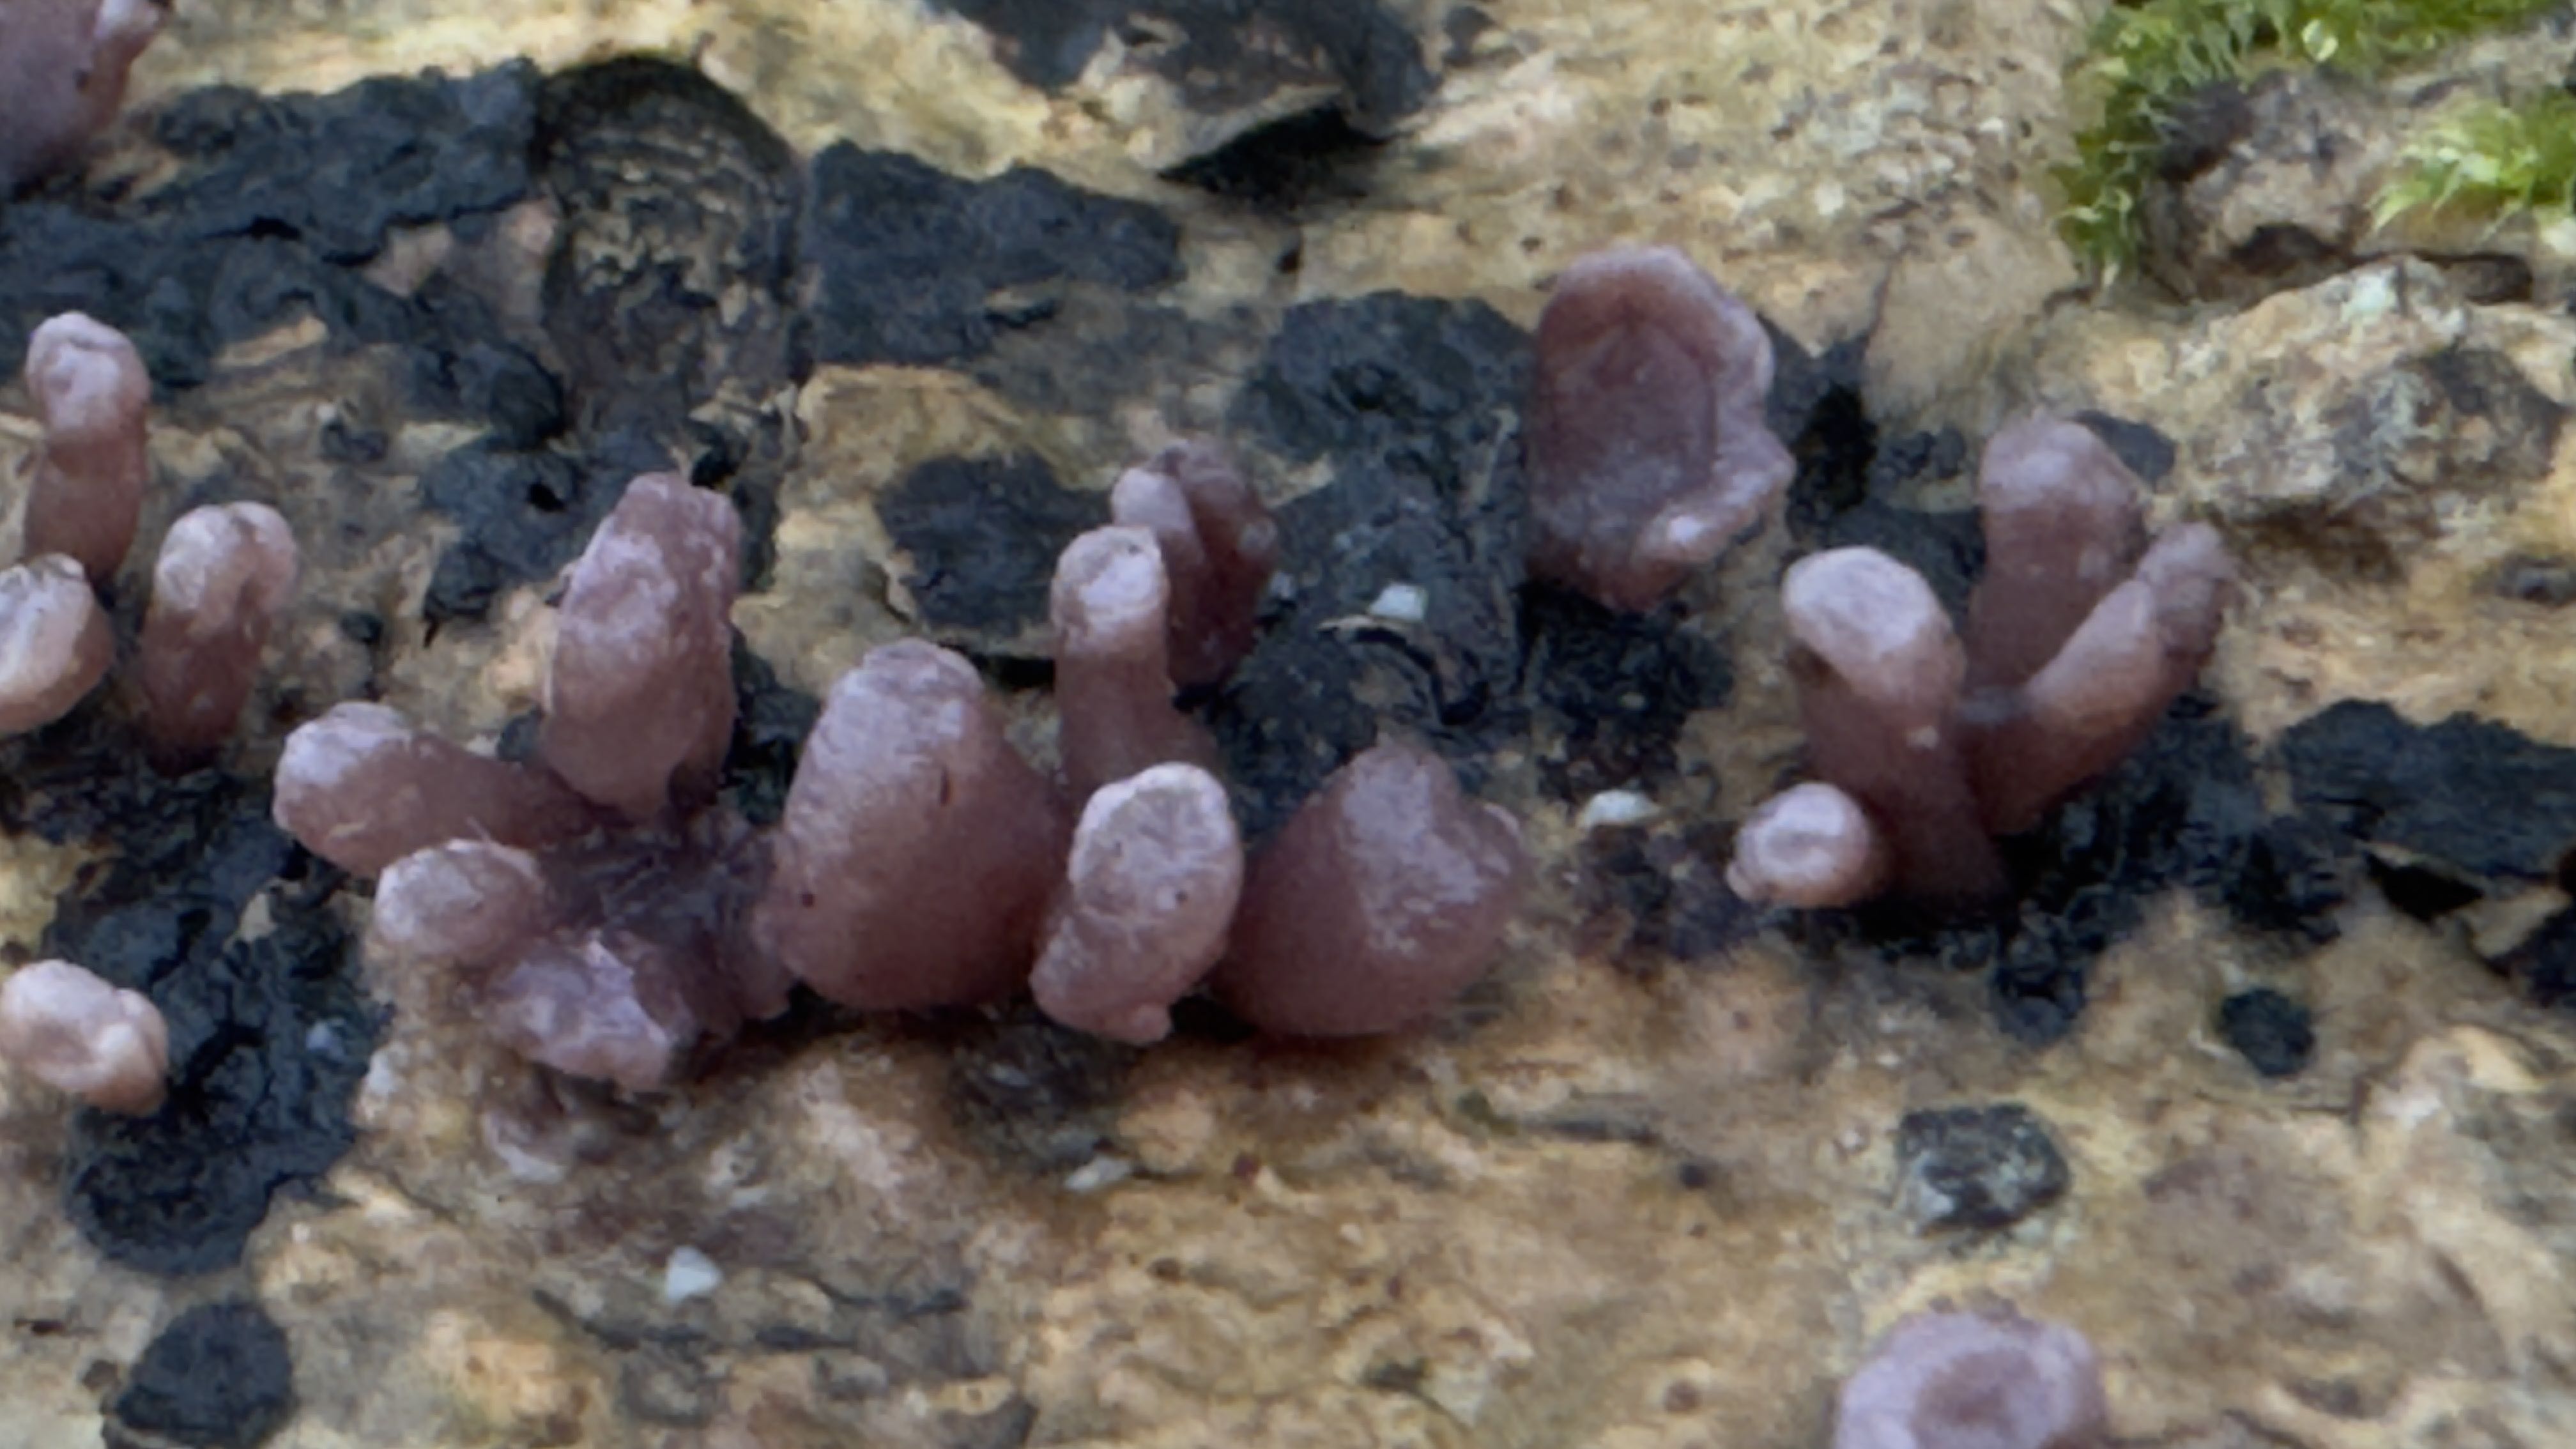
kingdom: Fungi
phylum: Ascomycota
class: Leotiomycetes
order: Helotiales
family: Gelatinodiscaceae
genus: Ascocoryne
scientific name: Ascocoryne sarcoides
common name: rødlilla sejskive
